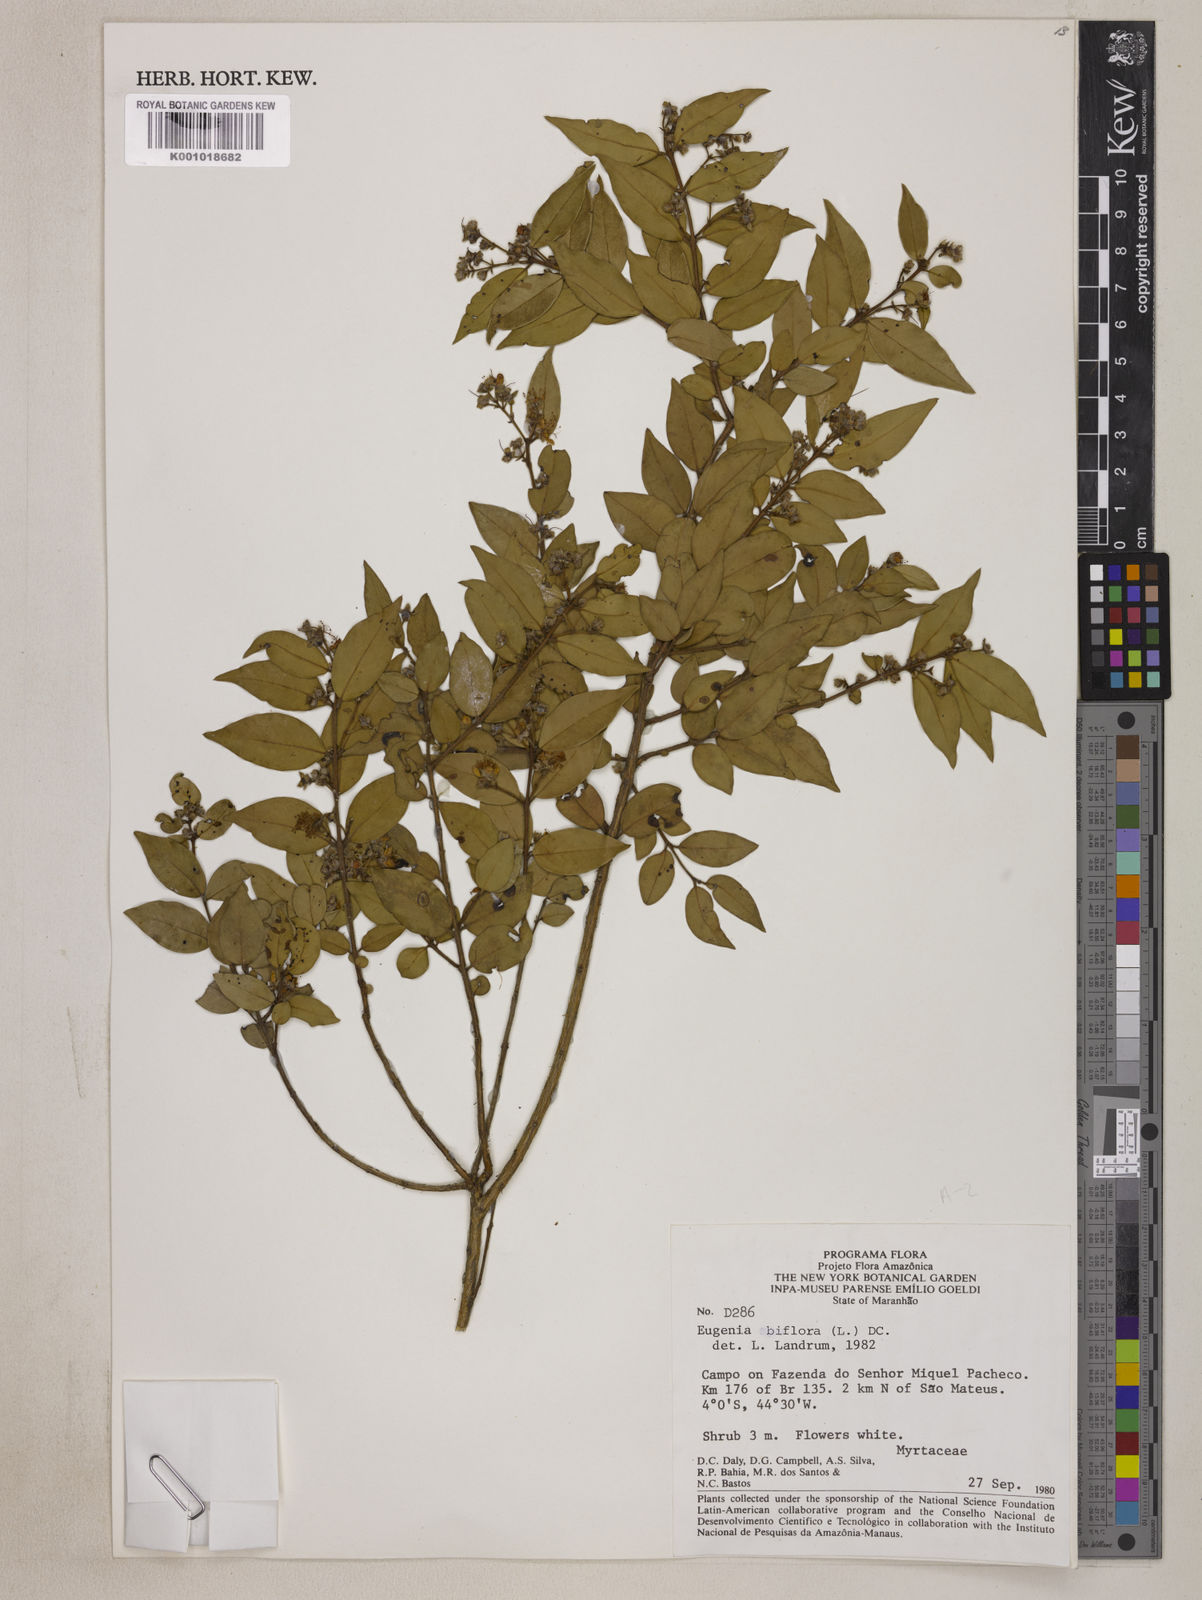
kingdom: Plantae
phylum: Tracheophyta
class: Magnoliopsida
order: Myrtales
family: Myrtaceae
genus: Eugenia
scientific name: Eugenia biflora
